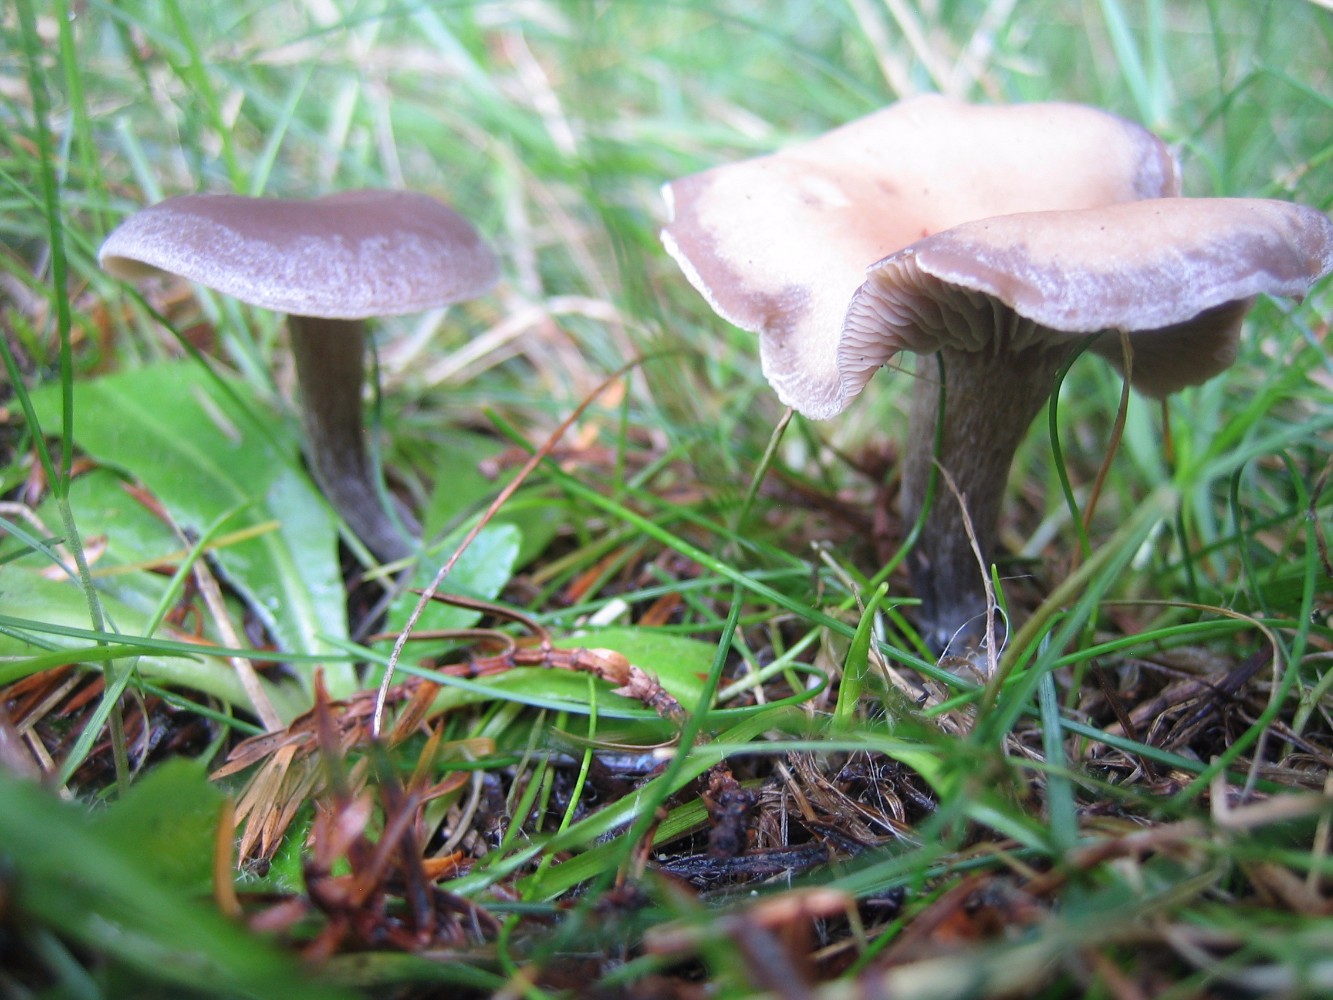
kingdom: Fungi
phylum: Basidiomycota
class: Agaricomycetes
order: Agaricales
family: Tricholomataceae
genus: Clitocybe
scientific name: Clitocybe
